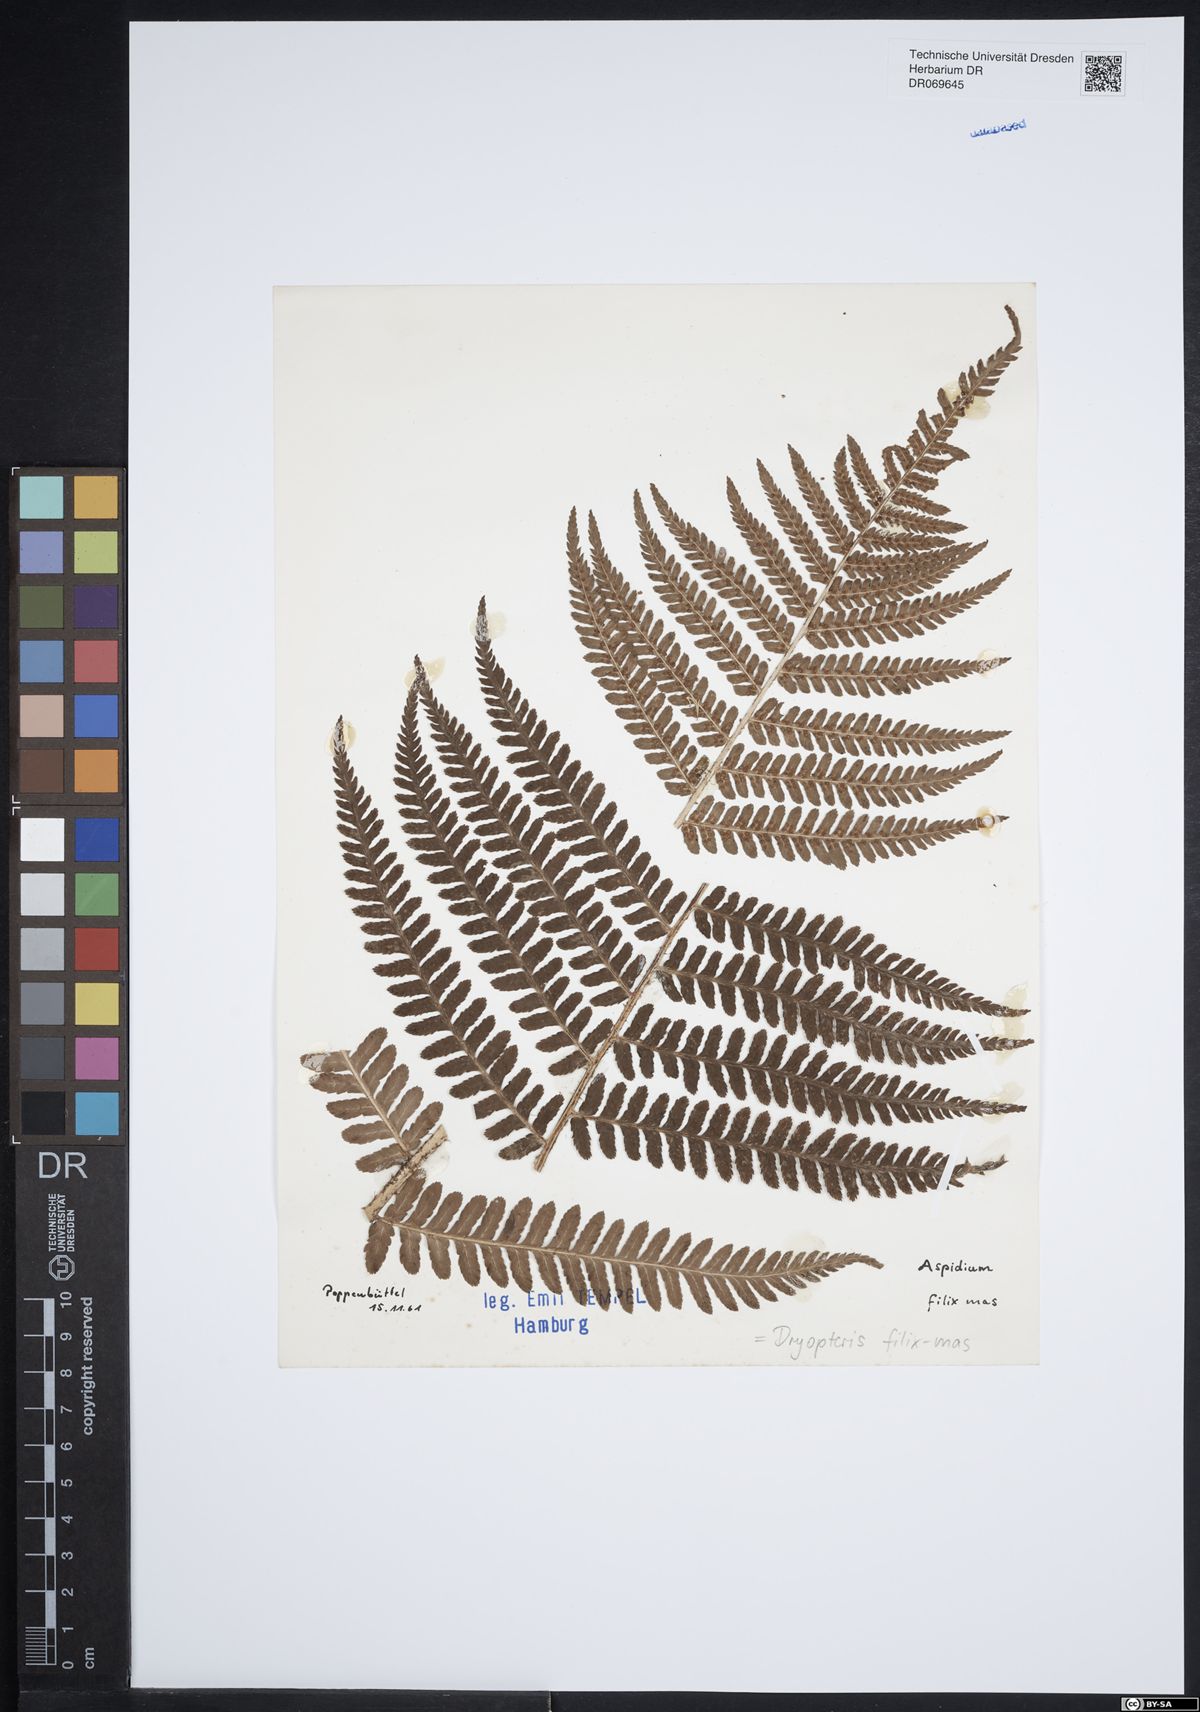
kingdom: Plantae
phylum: Tracheophyta
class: Polypodiopsida
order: Polypodiales
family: Dryopteridaceae
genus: Dryopteris
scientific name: Dryopteris filix-mas
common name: Male fern
